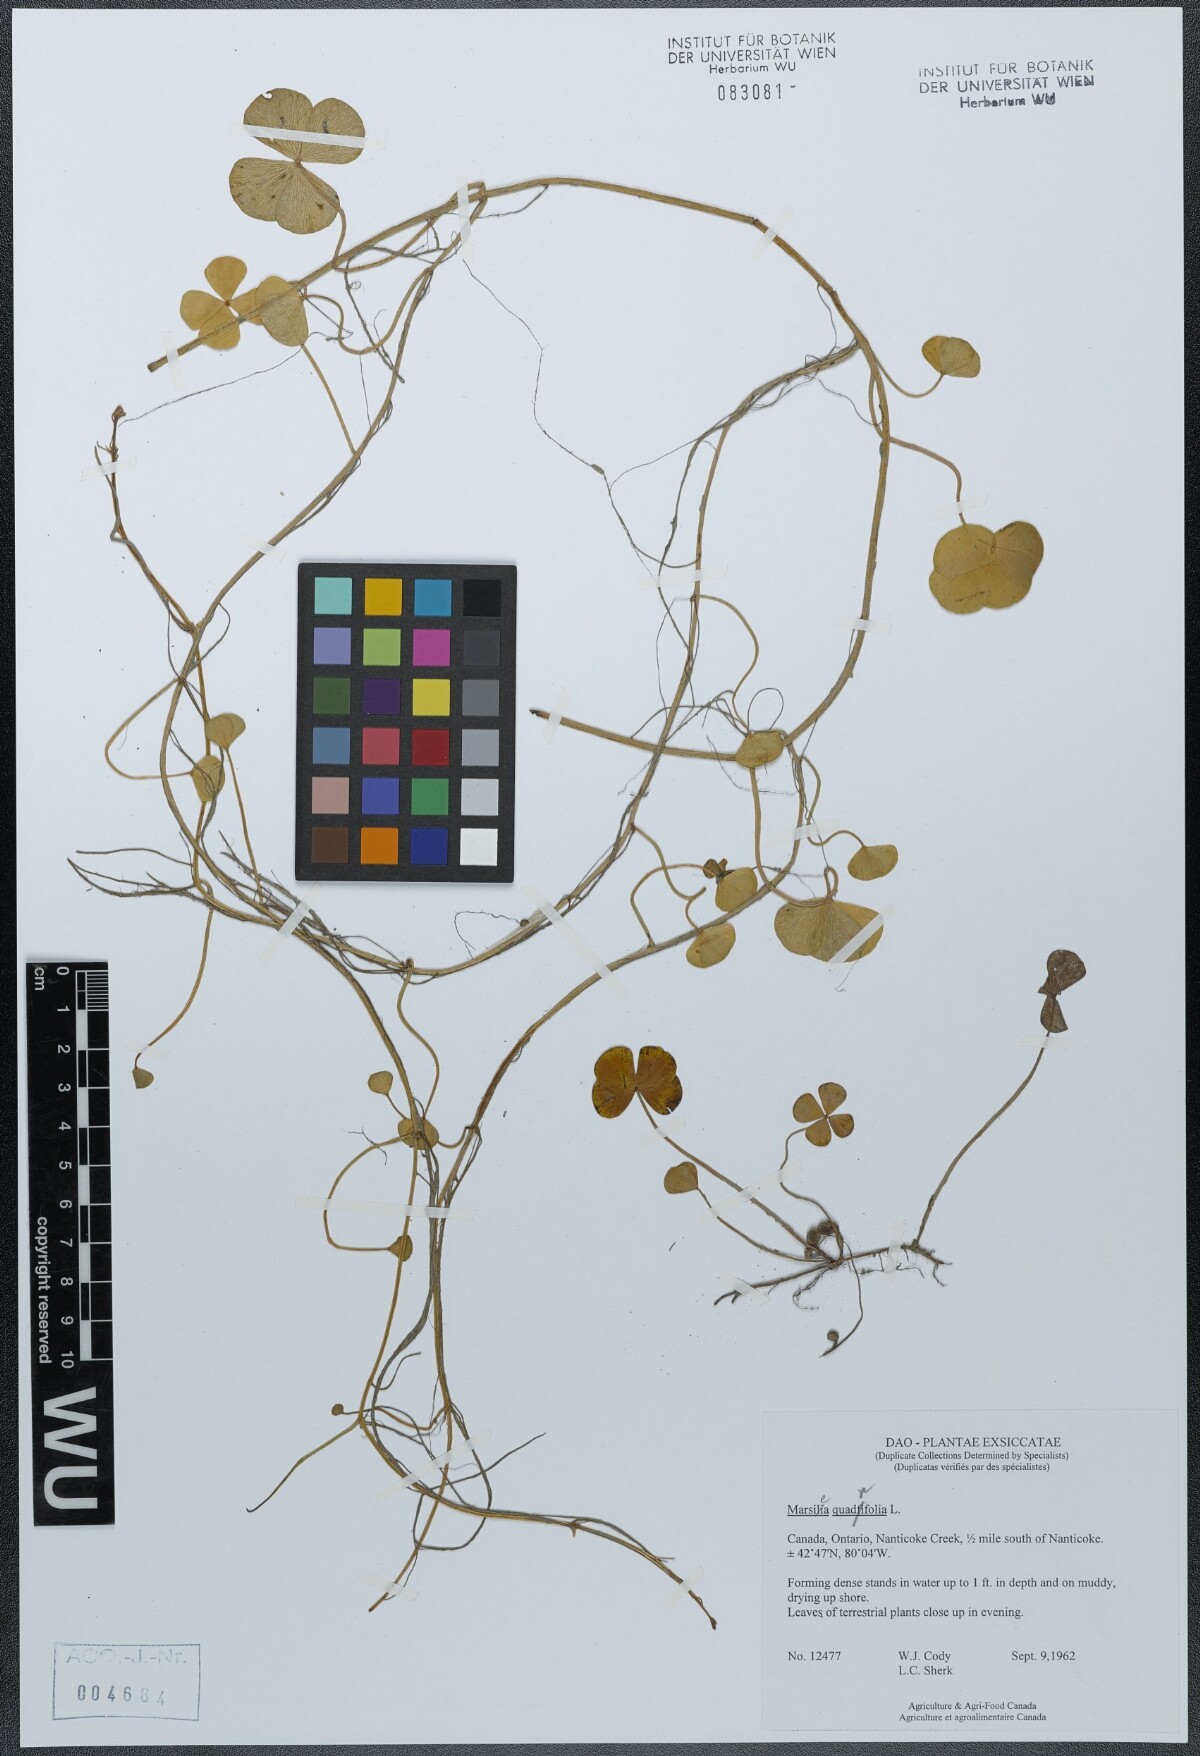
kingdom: Plantae
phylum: Tracheophyta
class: Polypodiopsida
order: Salviniales
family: Marsileaceae
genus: Marsilea
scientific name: Marsilea quadrifolia
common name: Water shamrock
